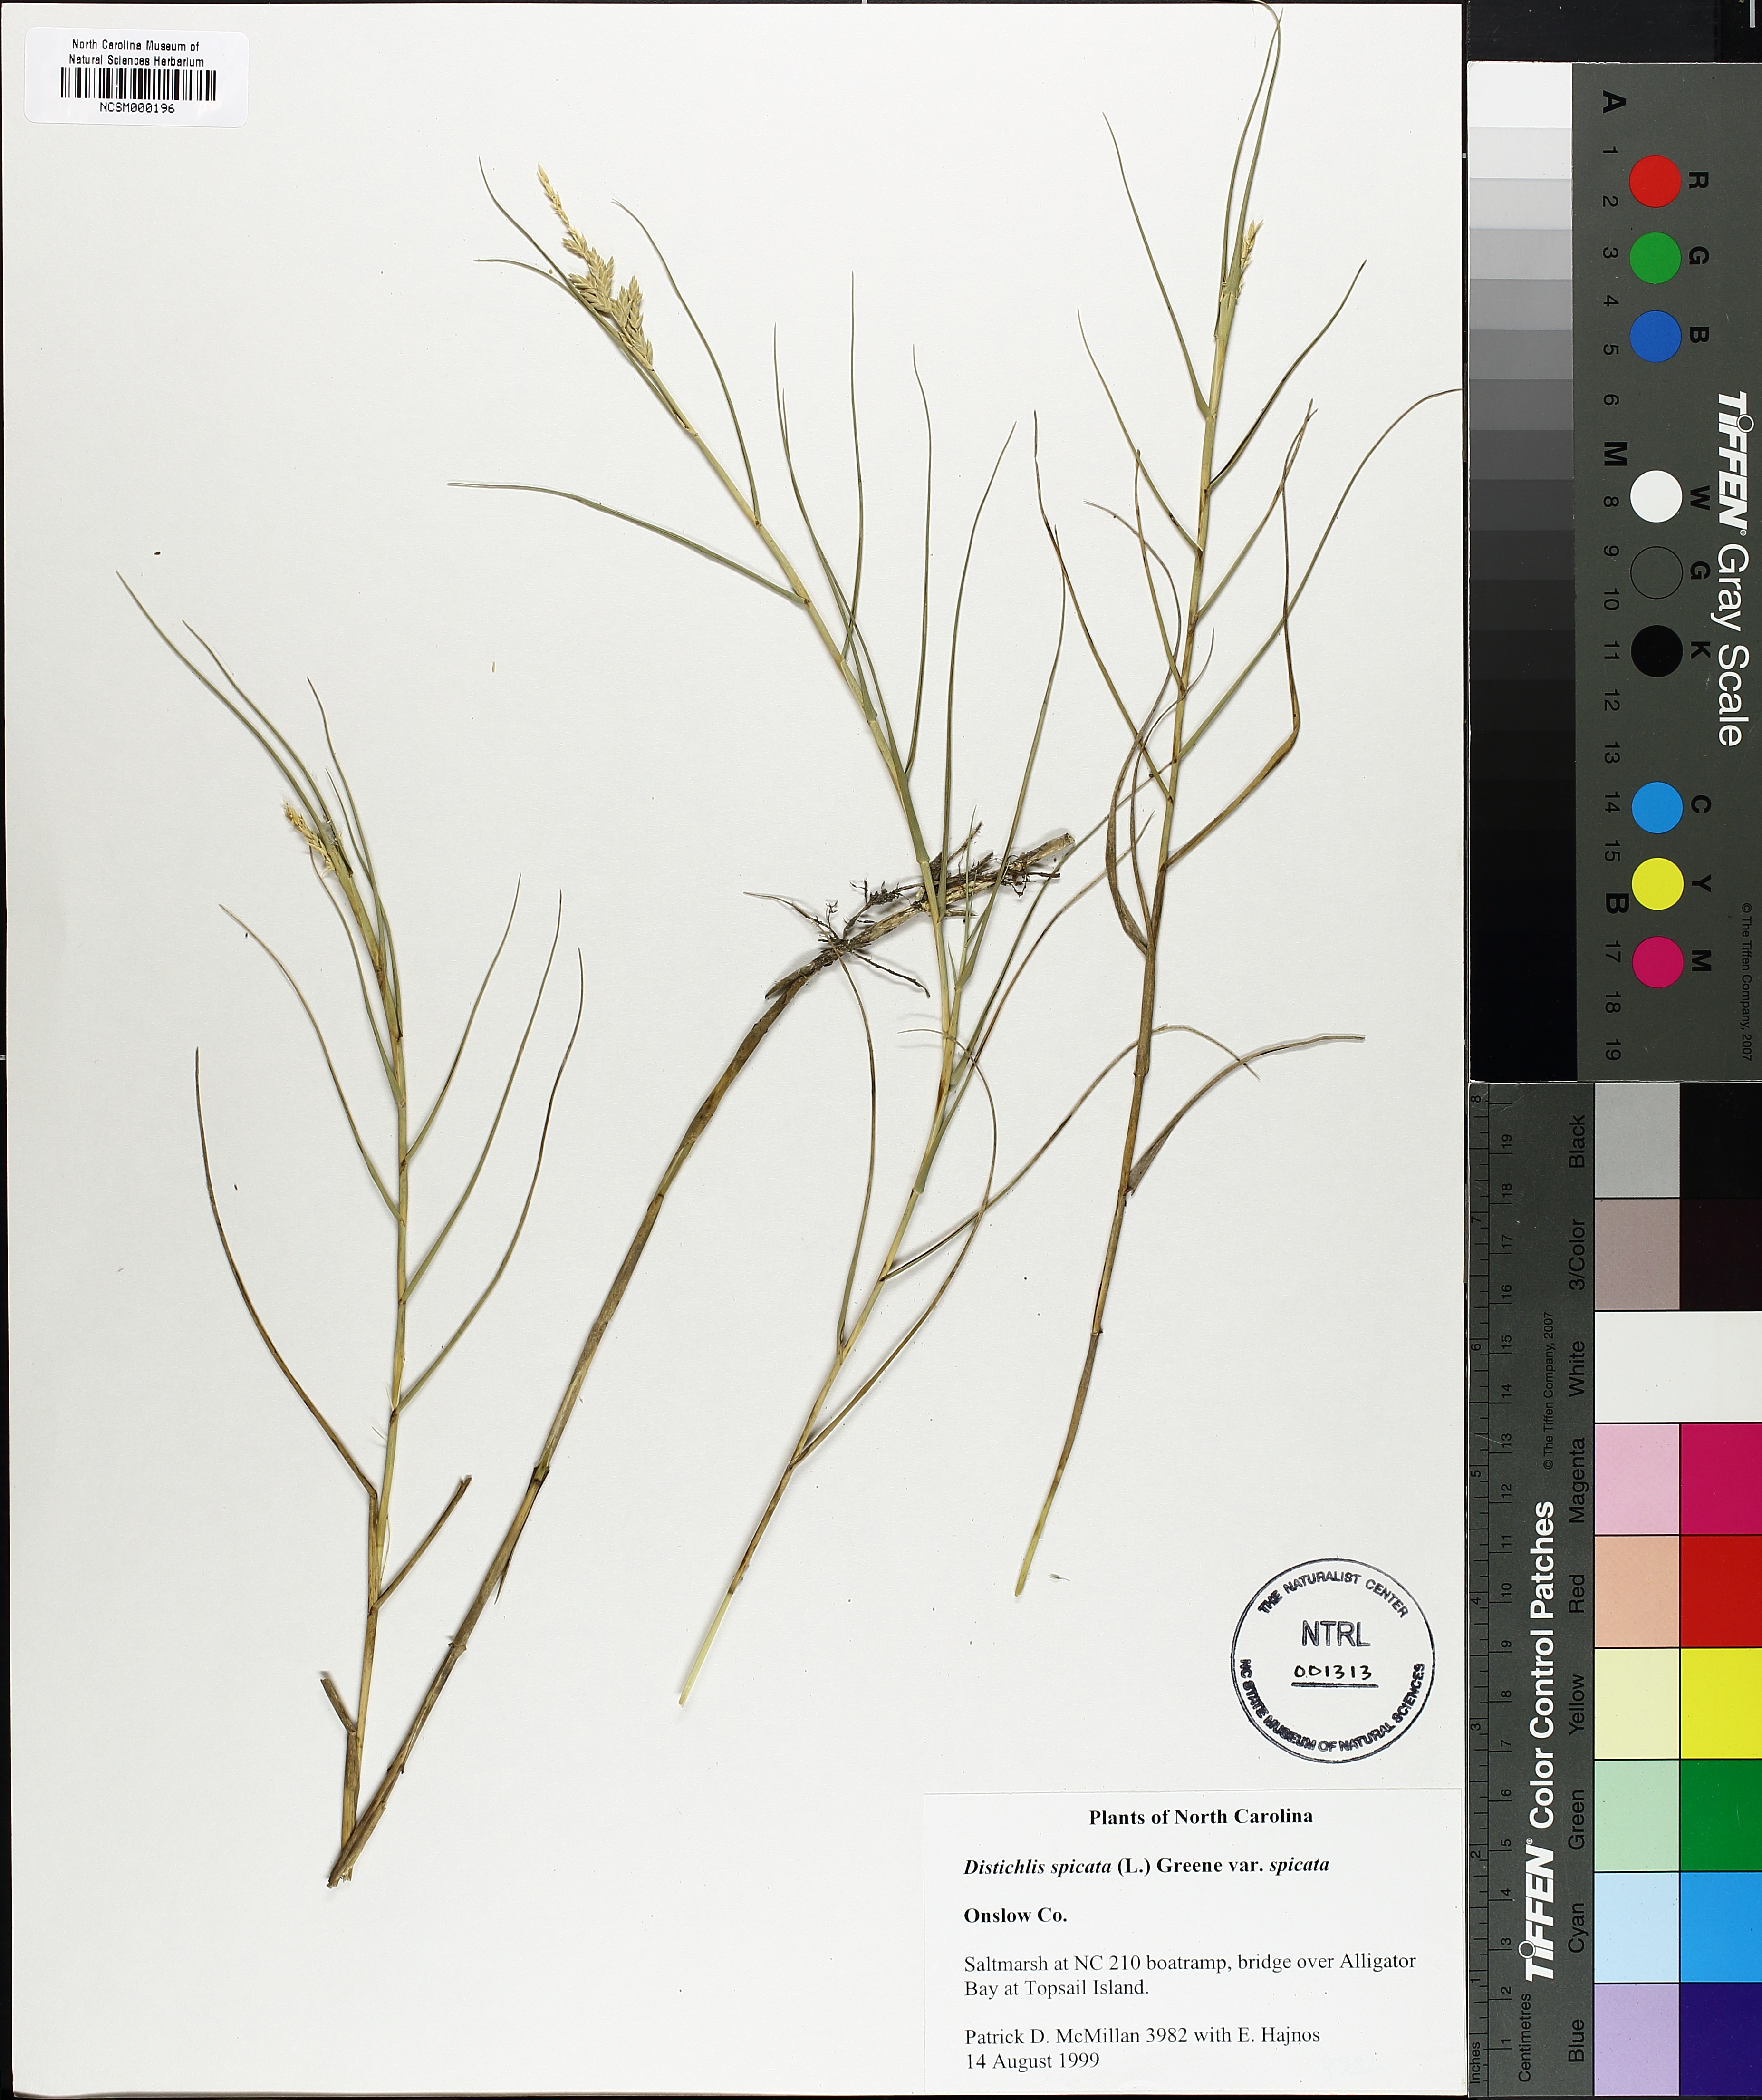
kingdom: Plantae
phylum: Tracheophyta
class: Liliopsida
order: Poales
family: Poaceae
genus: Distichlis
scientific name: Distichlis spicata
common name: Saltgrass
